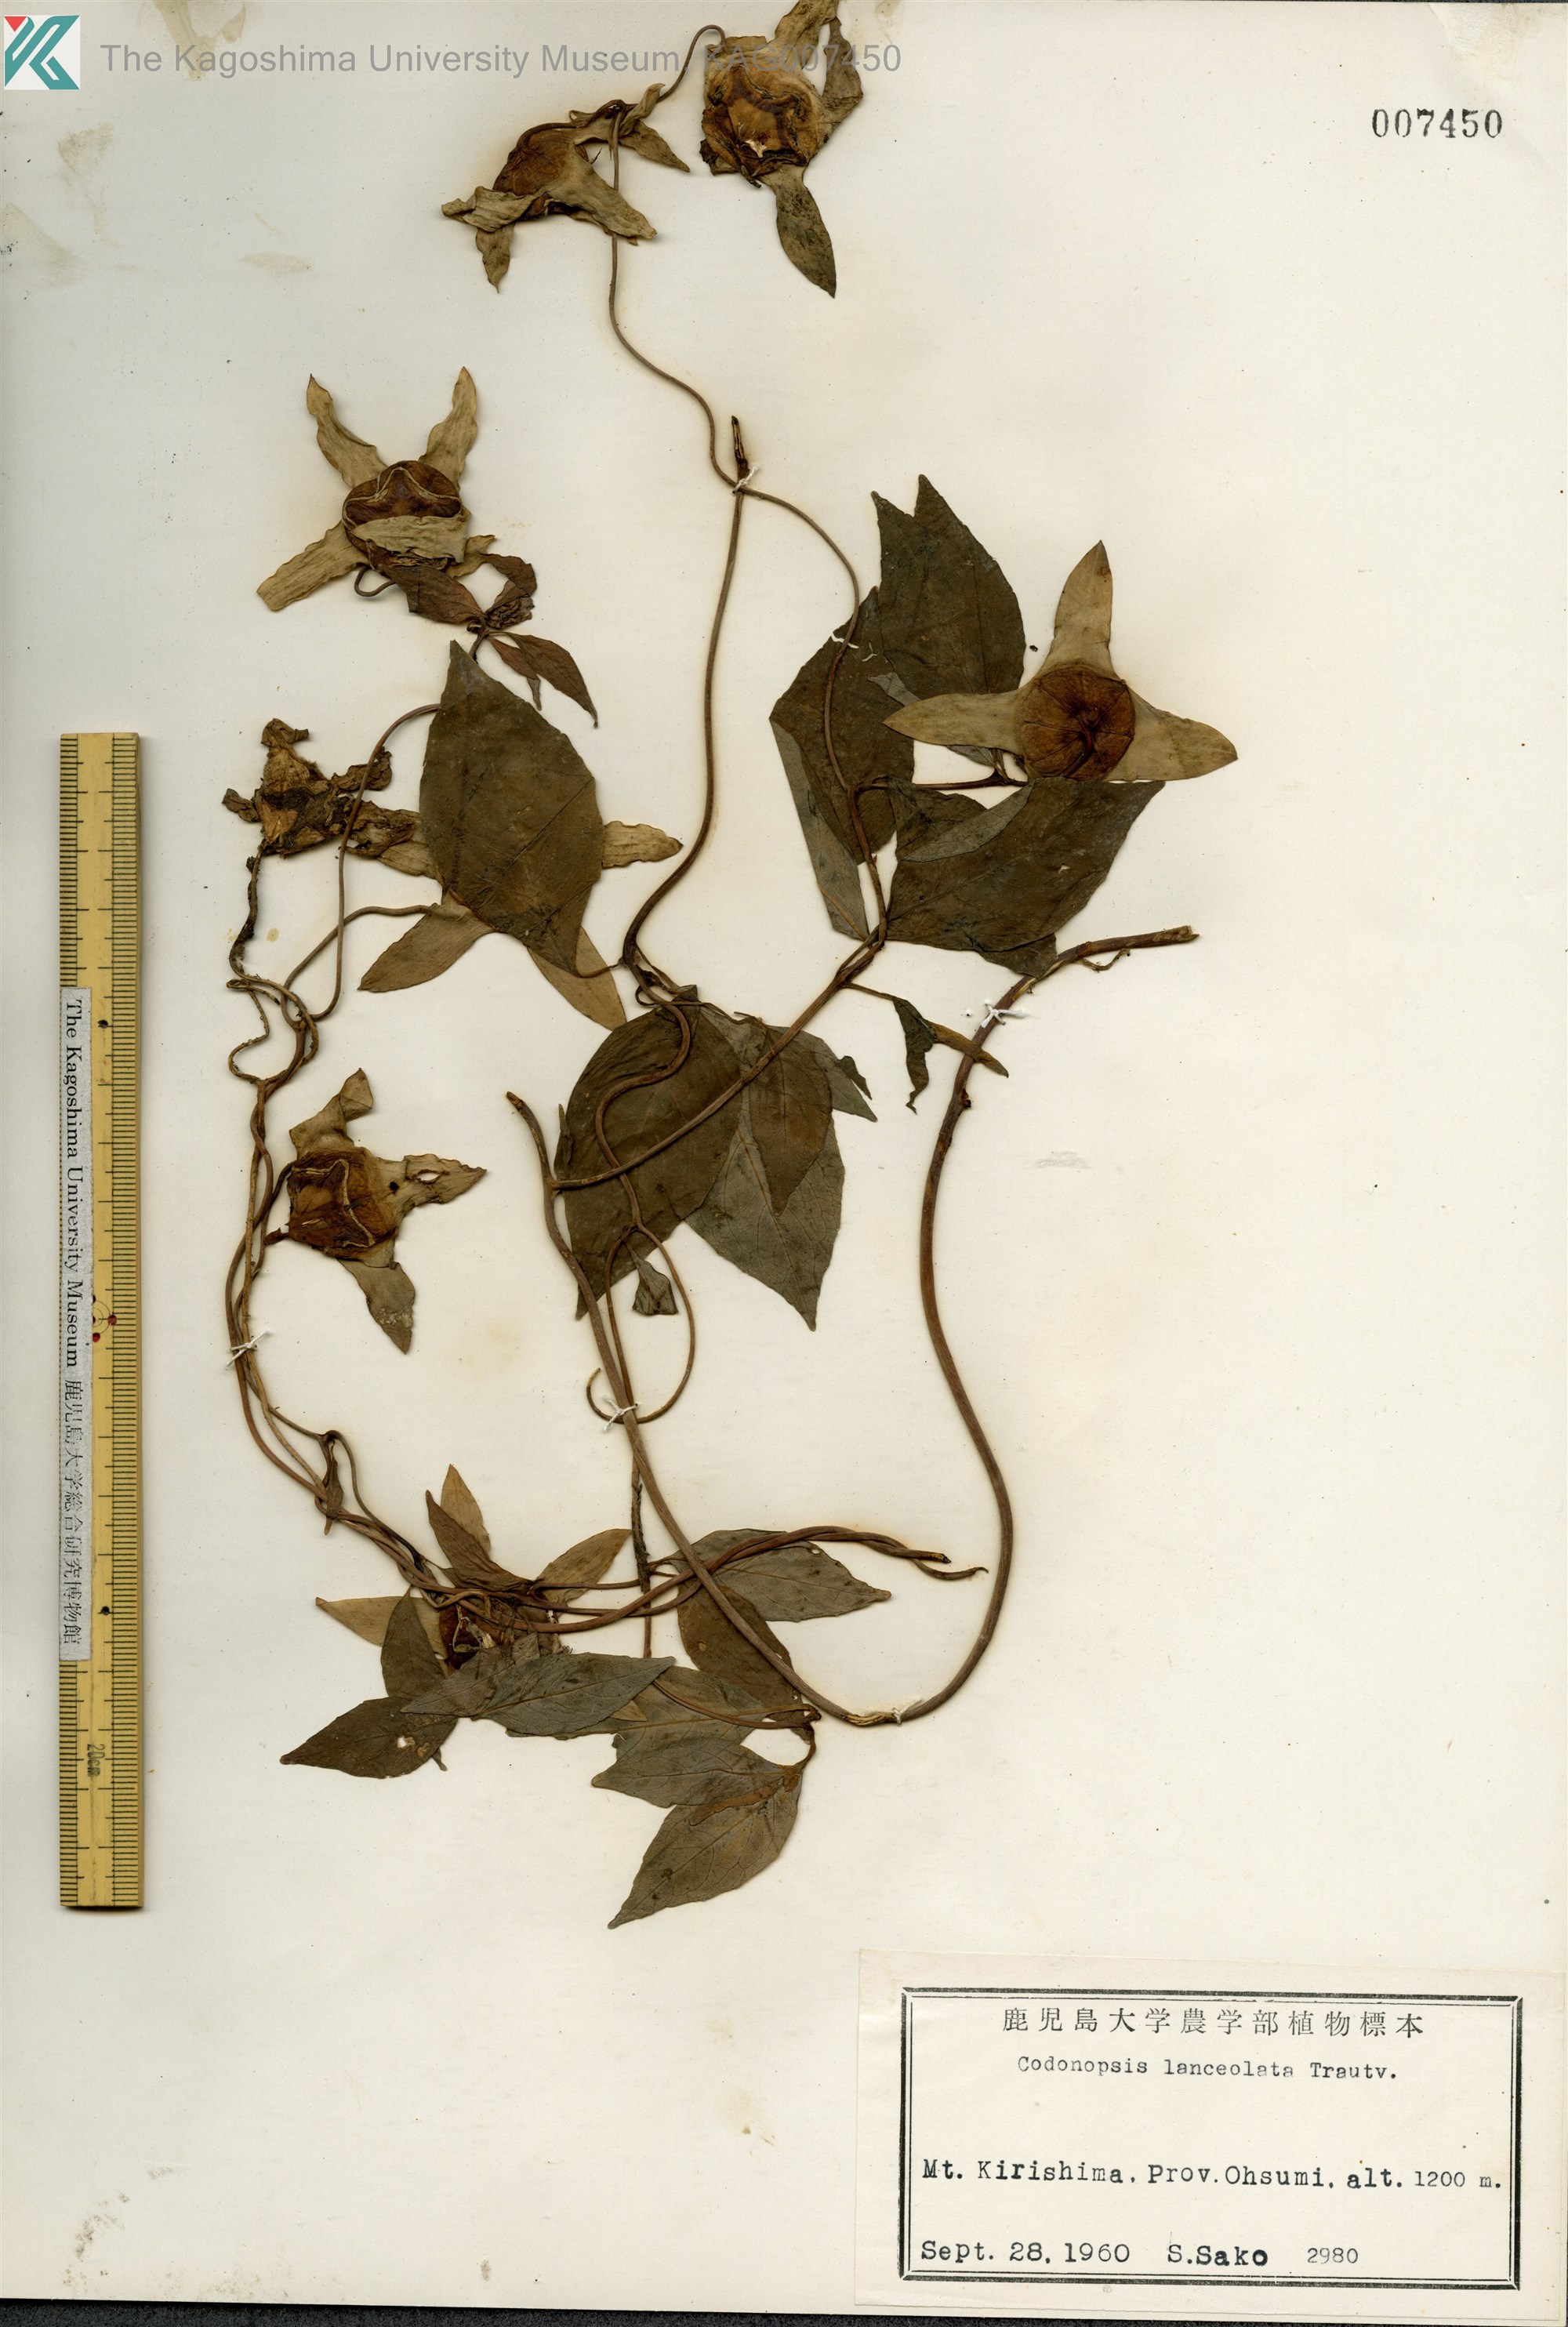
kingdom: Plantae
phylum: Tracheophyta
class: Magnoliopsida
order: Asterales
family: Campanulaceae
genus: Codonopsis
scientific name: Codonopsis lanceolata
